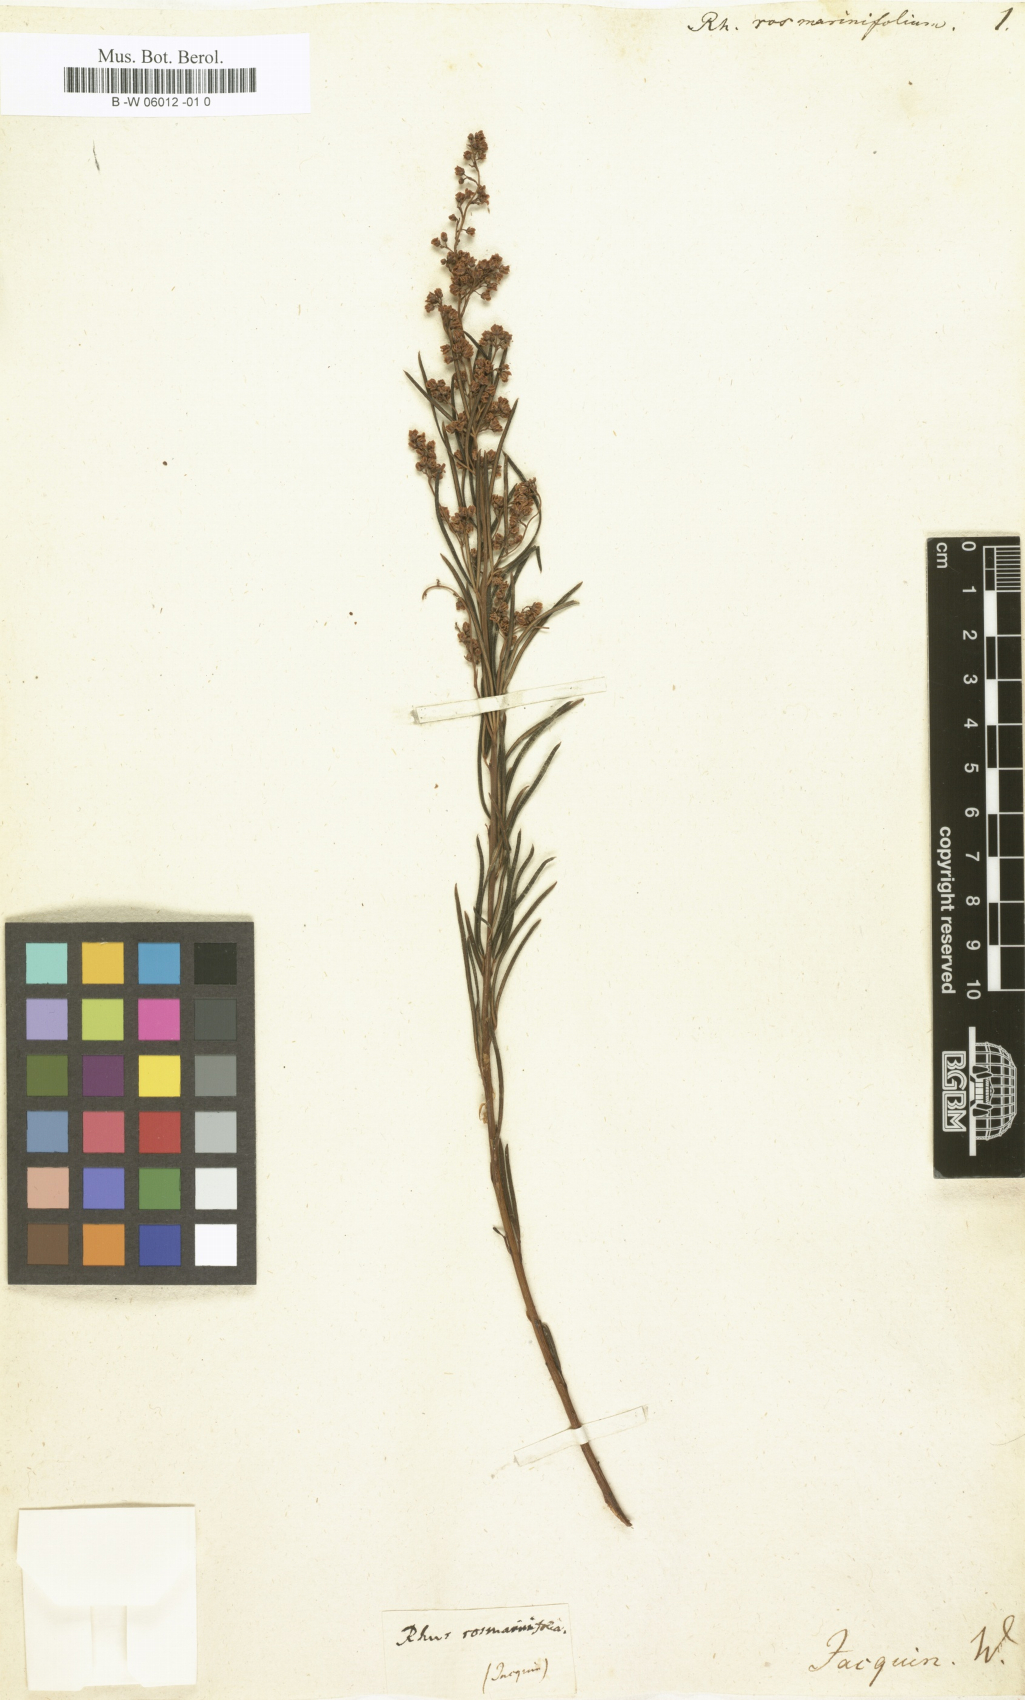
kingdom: Plantae
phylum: Tracheophyta
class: Magnoliopsida
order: Sapindales
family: Anacardiaceae
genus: Searsia
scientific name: Searsia
